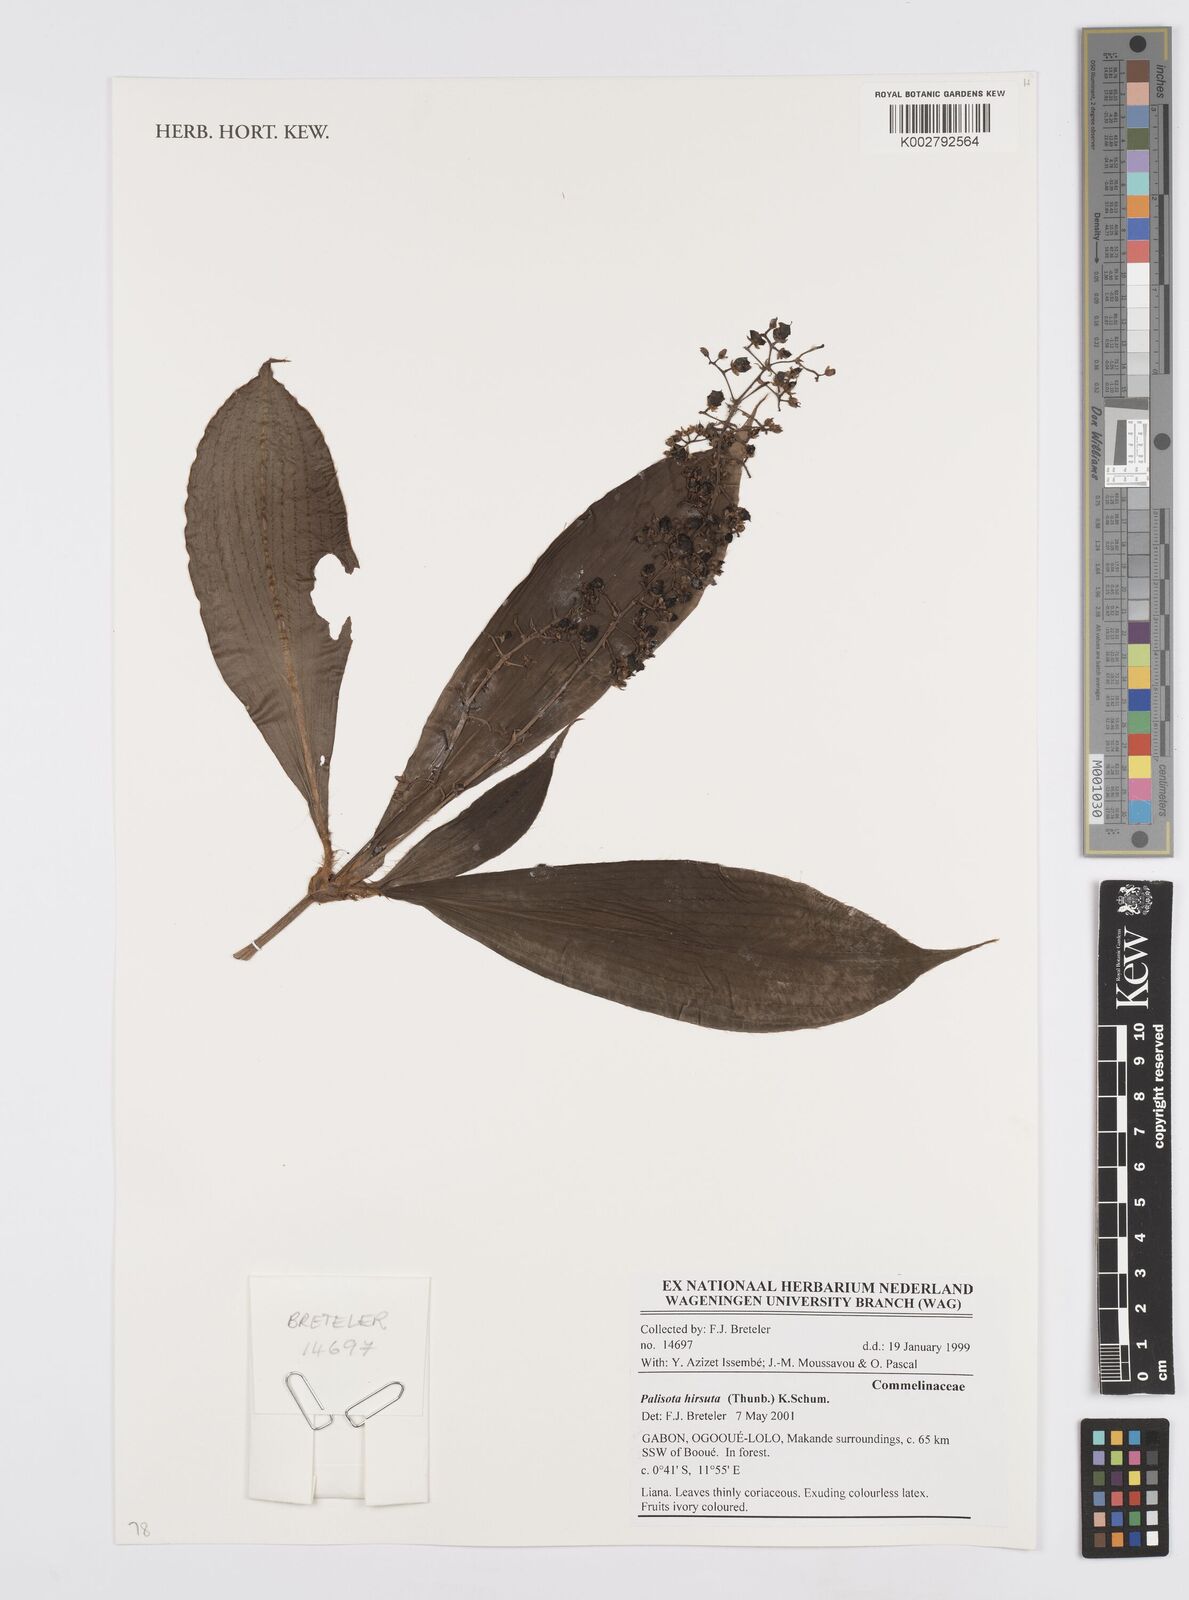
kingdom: Plantae
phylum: Tracheophyta
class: Liliopsida
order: Commelinales
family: Commelinaceae
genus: Palisota
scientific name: Palisota hirsuta
